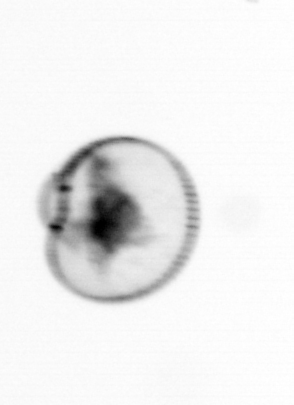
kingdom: Chromista
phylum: Myzozoa
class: Dinophyceae
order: Noctilucales
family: Noctilucaceae
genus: Noctiluca
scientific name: Noctiluca scintillans
